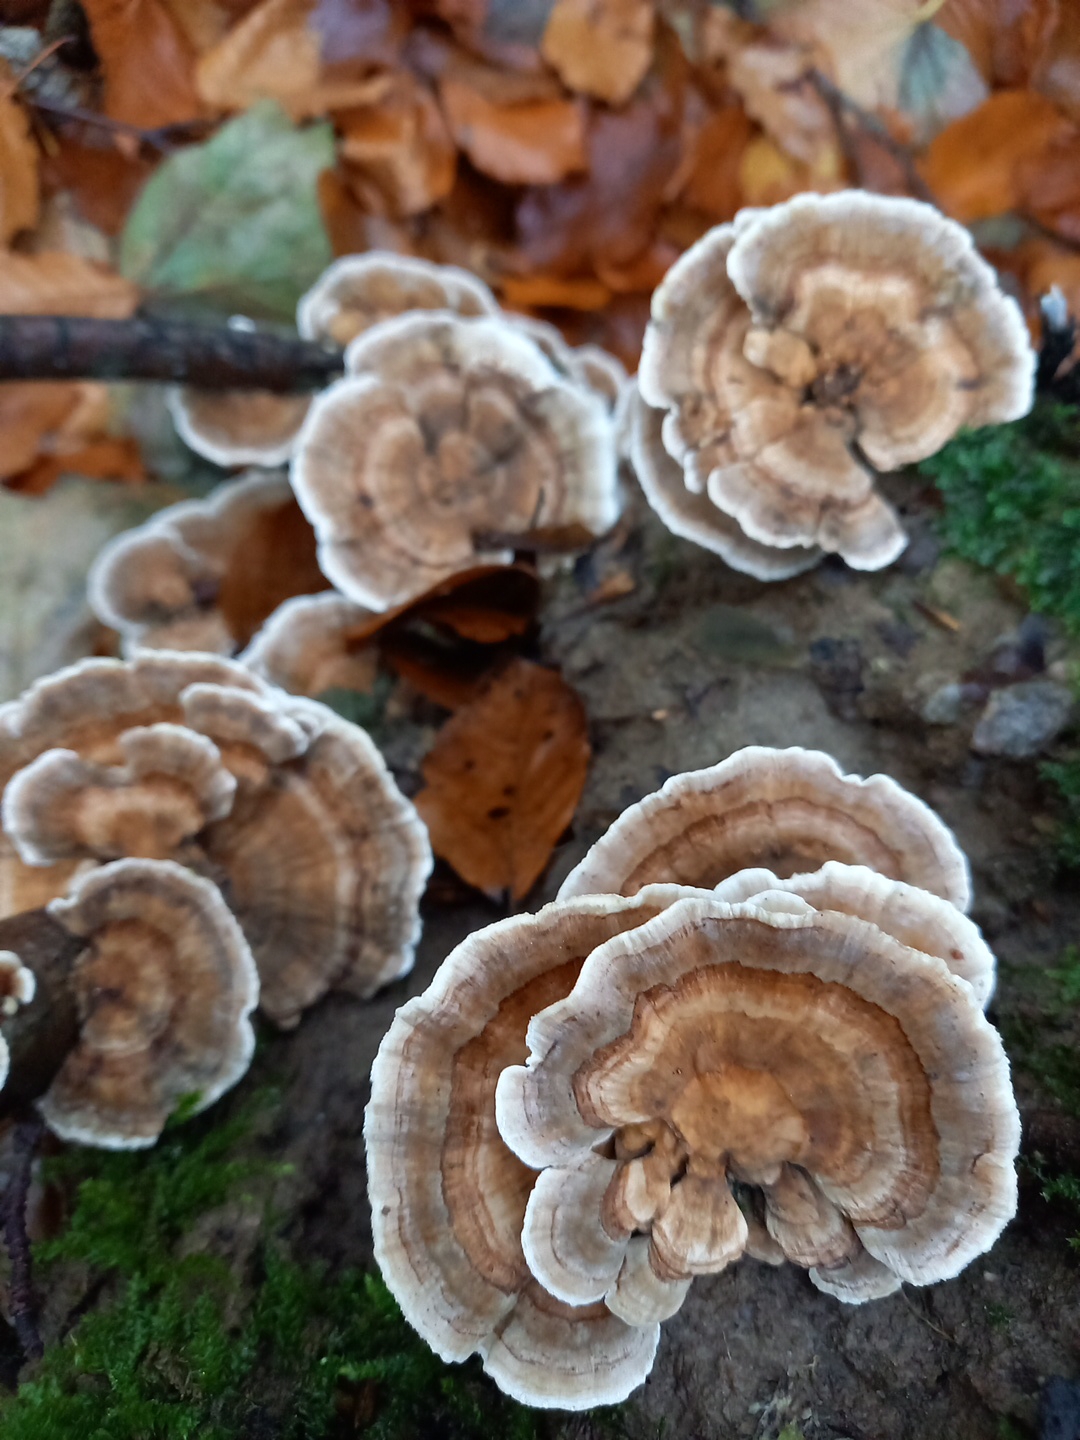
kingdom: Fungi
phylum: Basidiomycota
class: Agaricomycetes
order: Polyporales
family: Polyporaceae
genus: Trametes
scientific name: Trametes versicolor
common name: broget læderporesvamp
